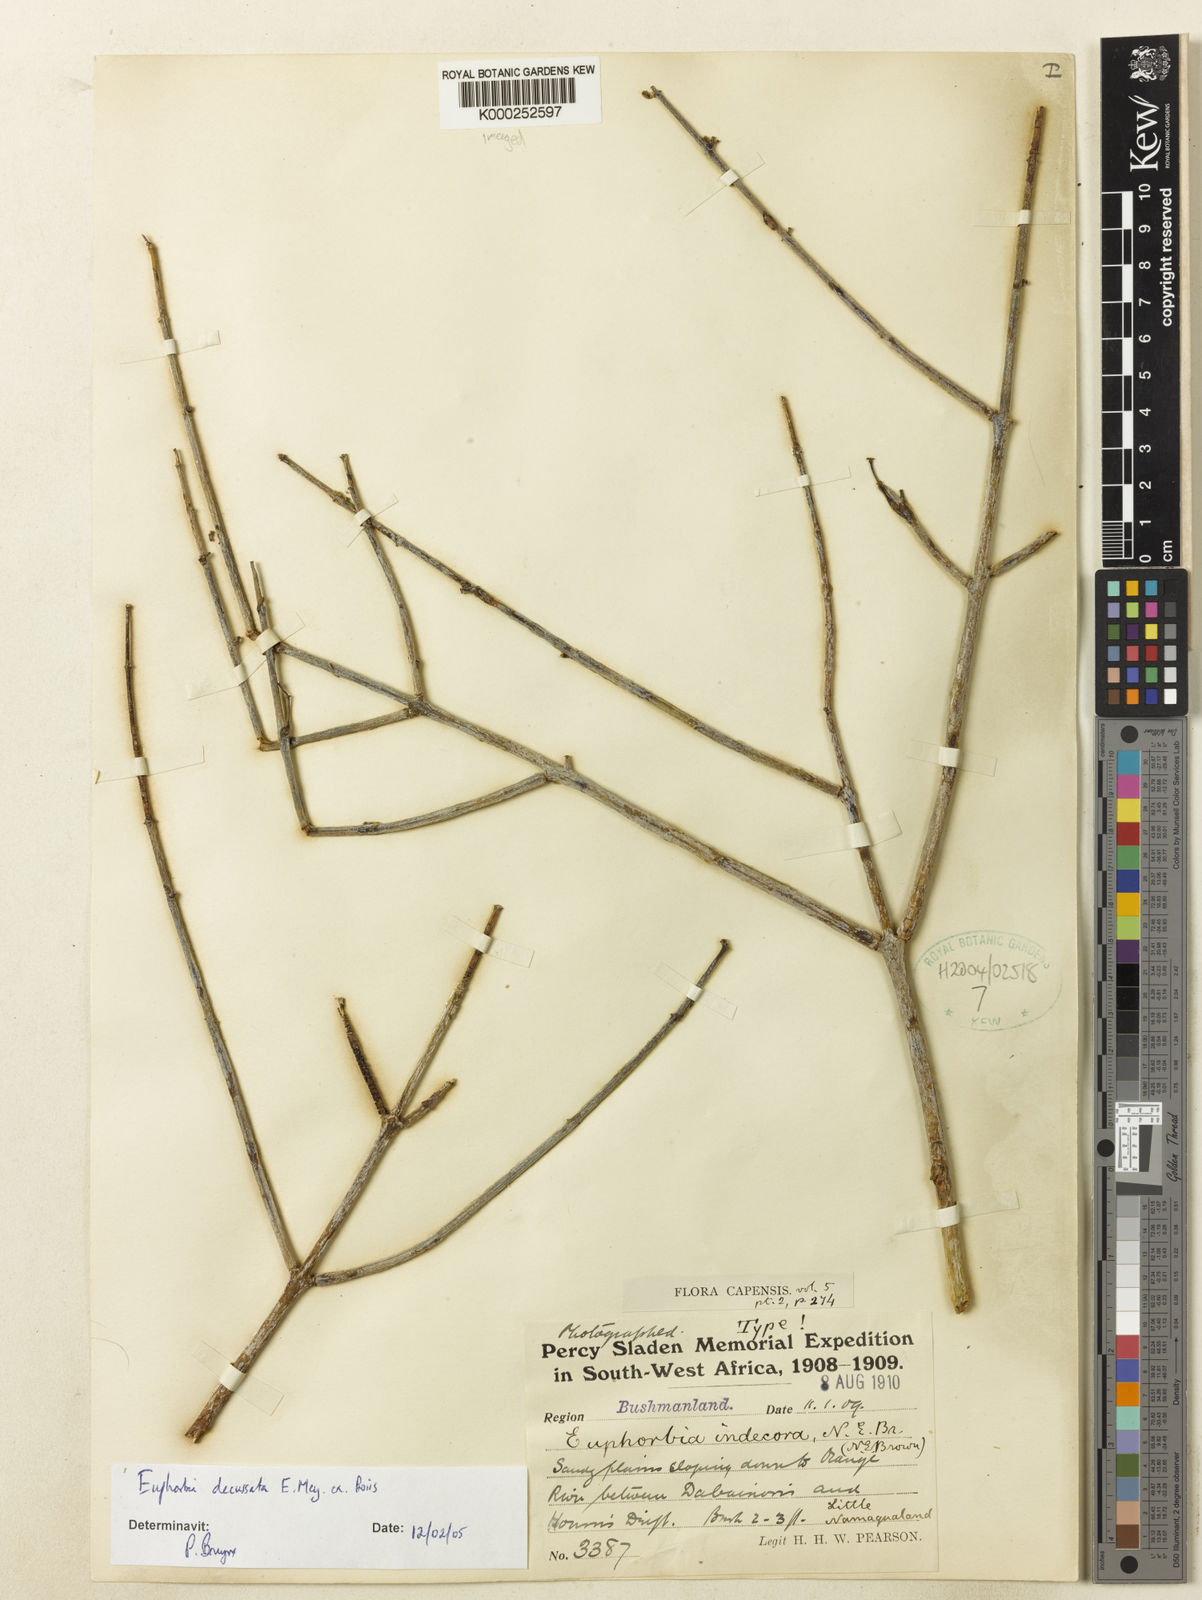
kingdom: Plantae
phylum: Tracheophyta
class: Magnoliopsida
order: Malpighiales
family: Euphorbiaceae
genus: Euphorbia
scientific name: Euphorbia spartaria
